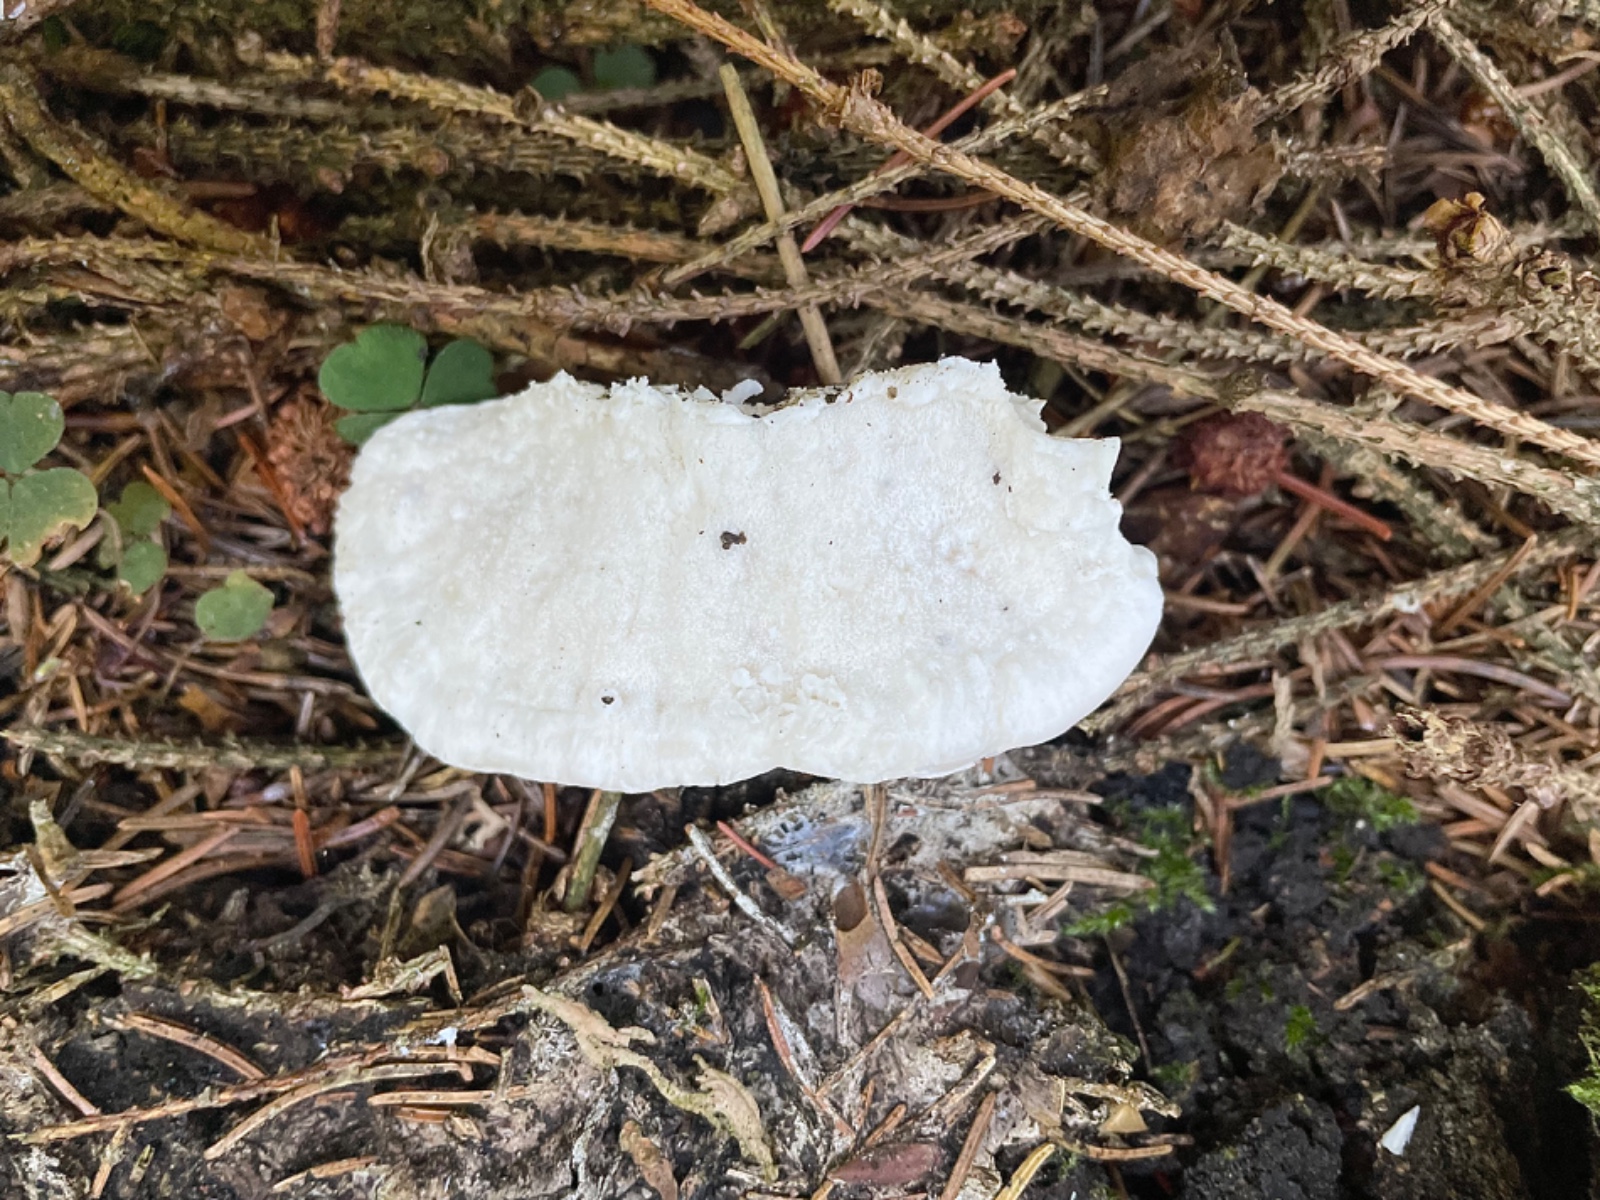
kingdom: Fungi
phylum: Basidiomycota
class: Agaricomycetes
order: Polyporales
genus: Amaropostia
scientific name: Amaropostia stiptica
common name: bitter kødporesvamp
